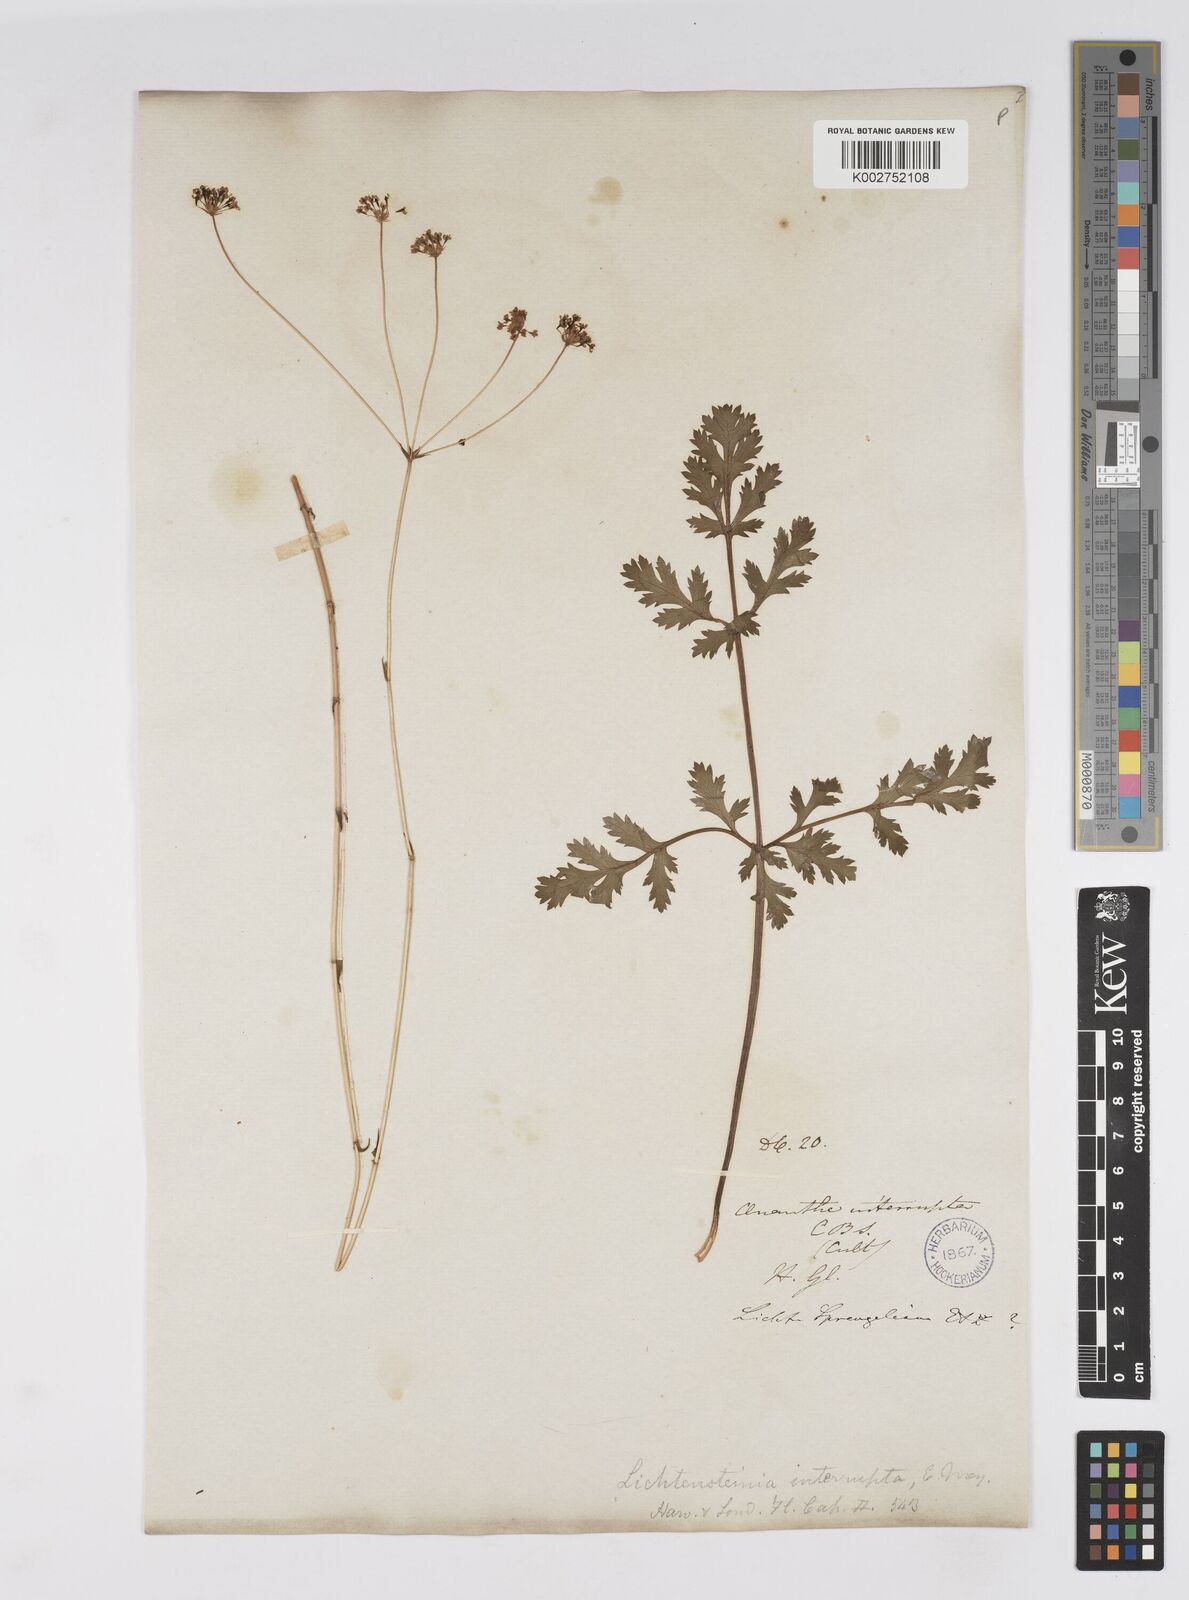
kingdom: Plantae
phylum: Tracheophyta
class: Magnoliopsida
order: Apiales
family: Apiaceae
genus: Lichtensteinia
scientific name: Lichtensteinia interrupta
